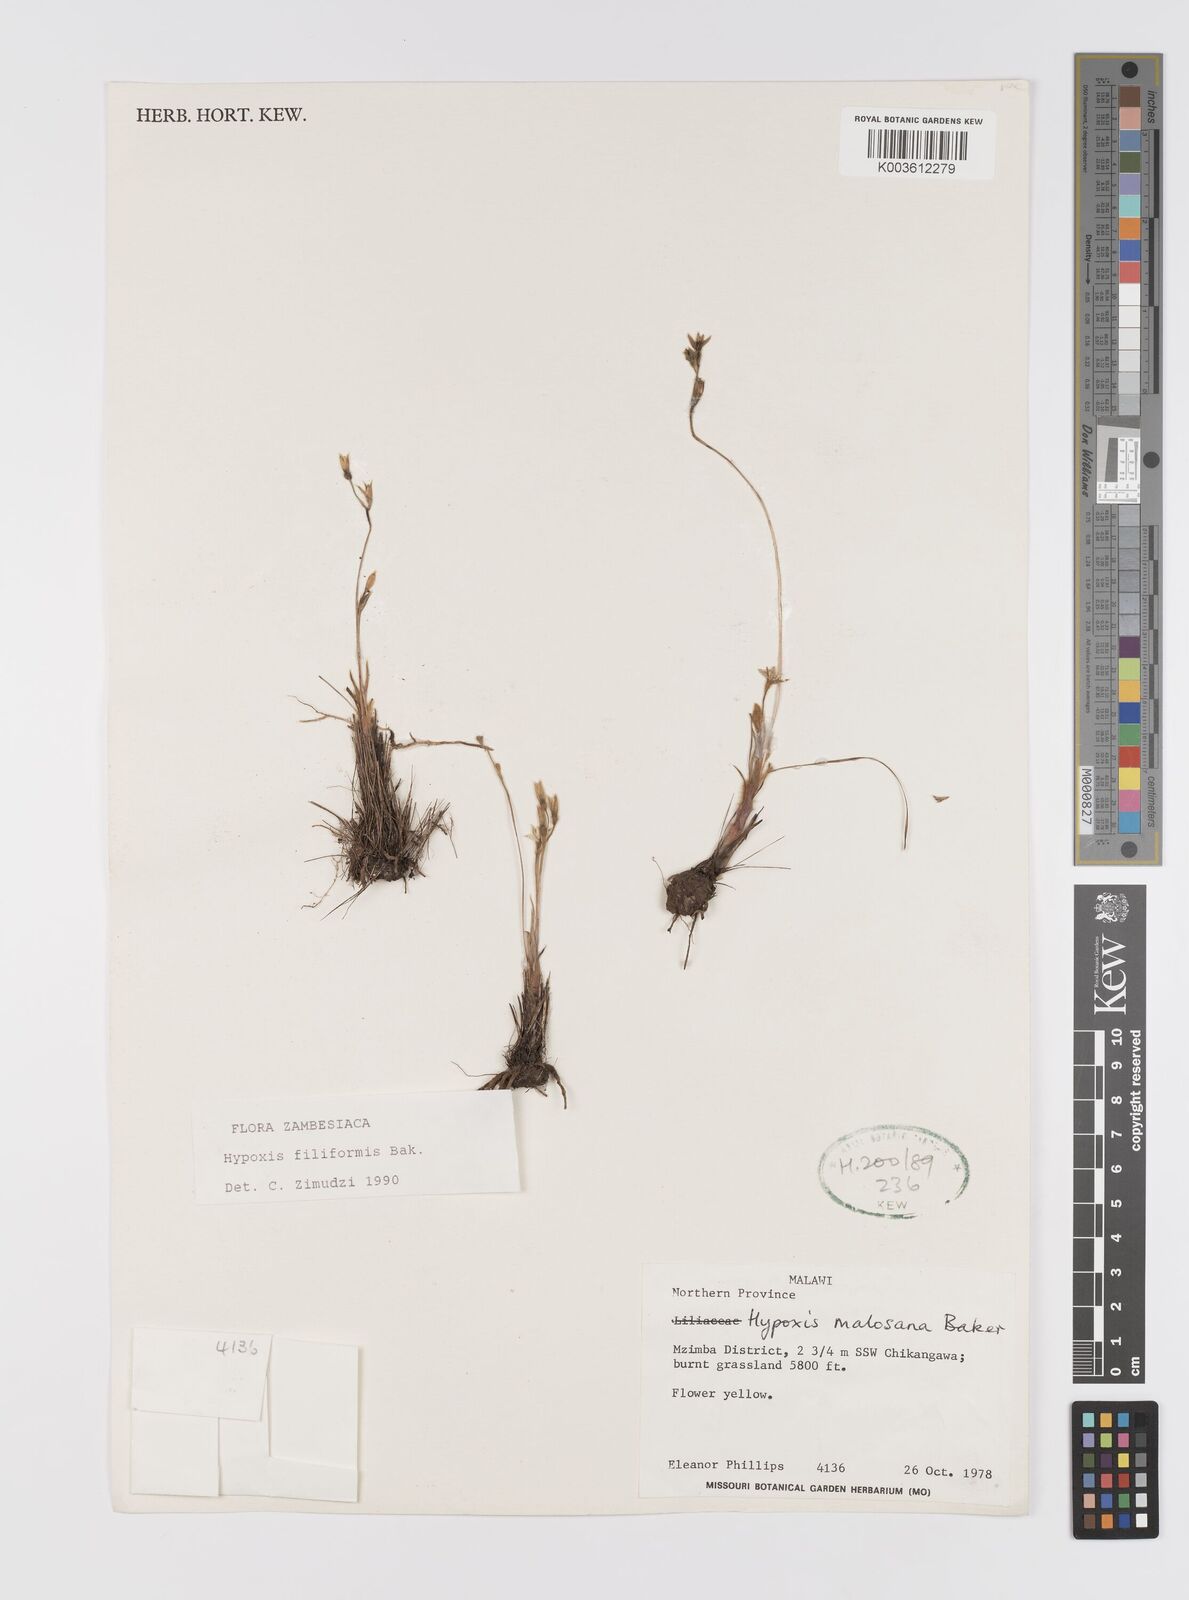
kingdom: Plantae
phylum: Tracheophyta
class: Liliopsida
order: Asparagales
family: Hypoxidaceae
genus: Hypoxis
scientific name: Hypoxis filiformis
